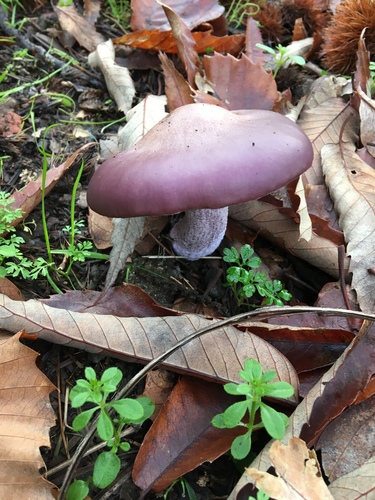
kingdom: Fungi
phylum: Basidiomycota
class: Agaricomycetes
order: Agaricales
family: Tricholomataceae
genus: Lepista
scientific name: Lepista nuda
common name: Wood blewit
